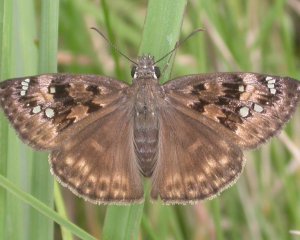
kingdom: Animalia
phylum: Arthropoda
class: Insecta
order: Lepidoptera
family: Hesperiidae
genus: Gesta
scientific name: Gesta
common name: Horace's Duskywing
